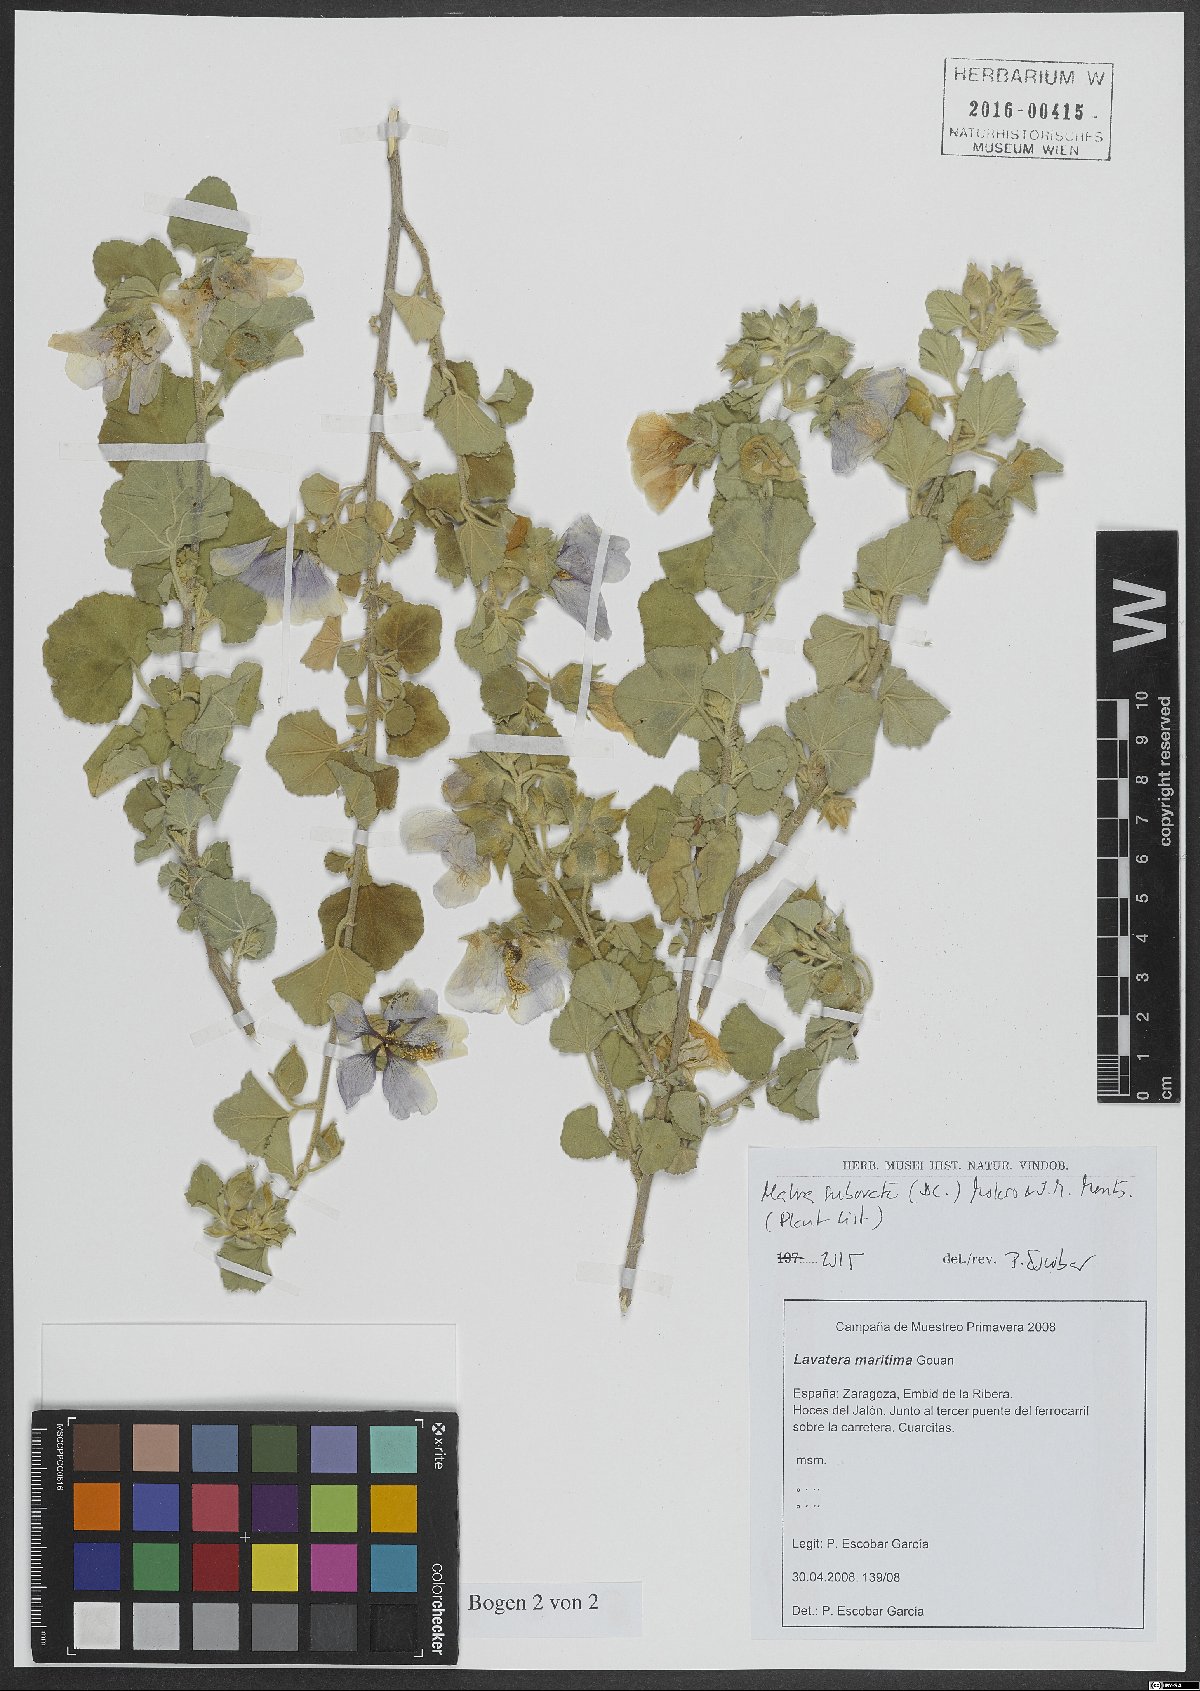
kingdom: Plantae
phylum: Tracheophyta
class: Magnoliopsida
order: Malvales
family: Malvaceae
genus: Malva
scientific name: Malva subovata
